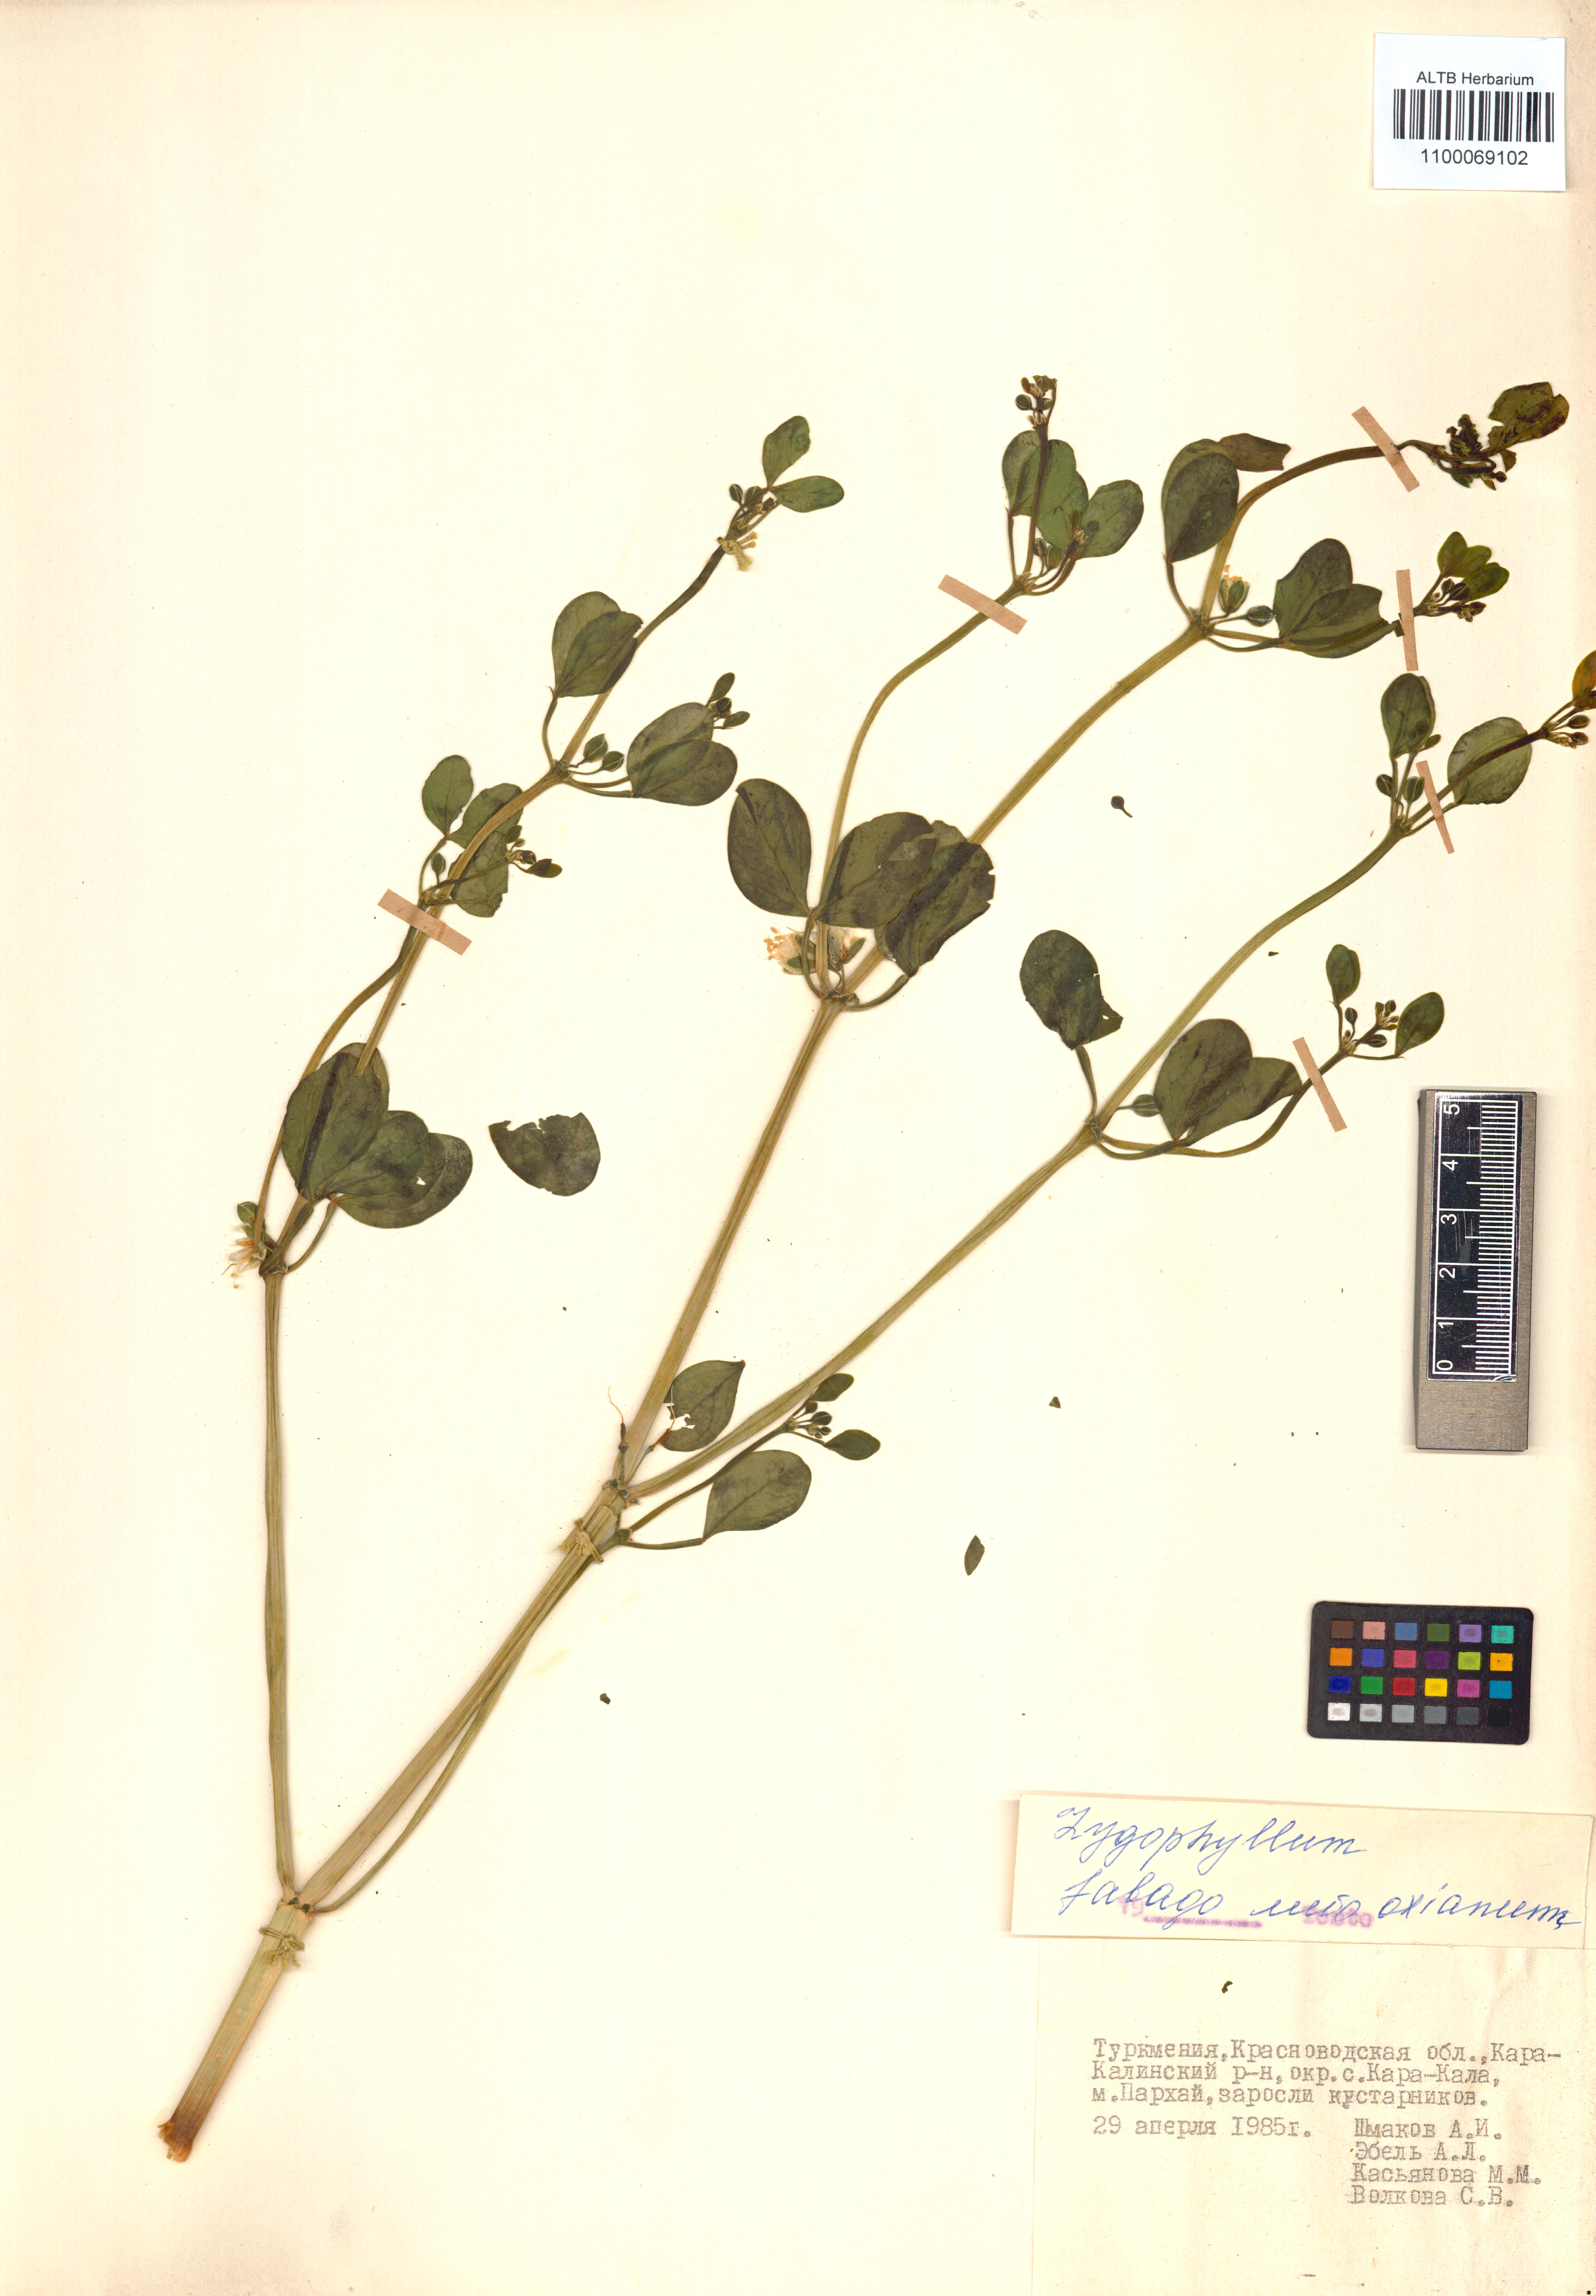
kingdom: Plantae
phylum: Tracheophyta
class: Magnoliopsida
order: Zygophyllales
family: Zygophyllaceae
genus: Zygophyllum
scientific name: Zygophyllum fabago
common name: Syrian beancaper
